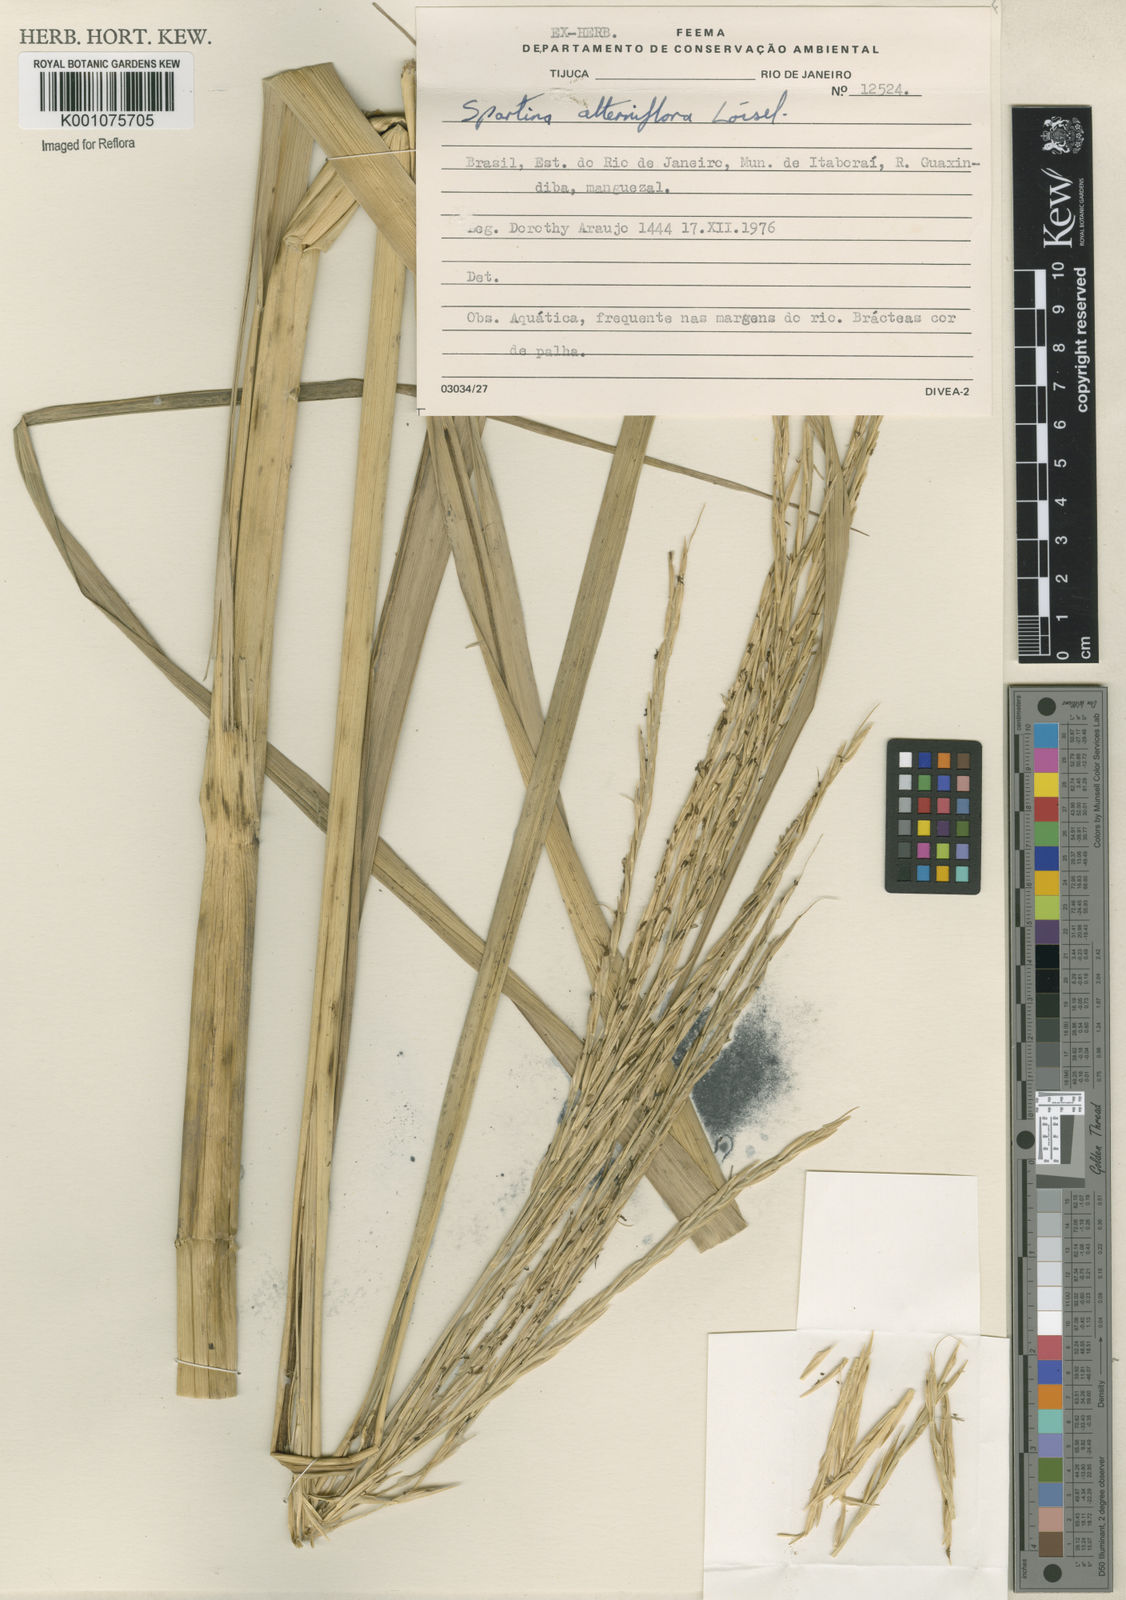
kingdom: Animalia
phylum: Mollusca
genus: Spartina
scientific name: Spartina
